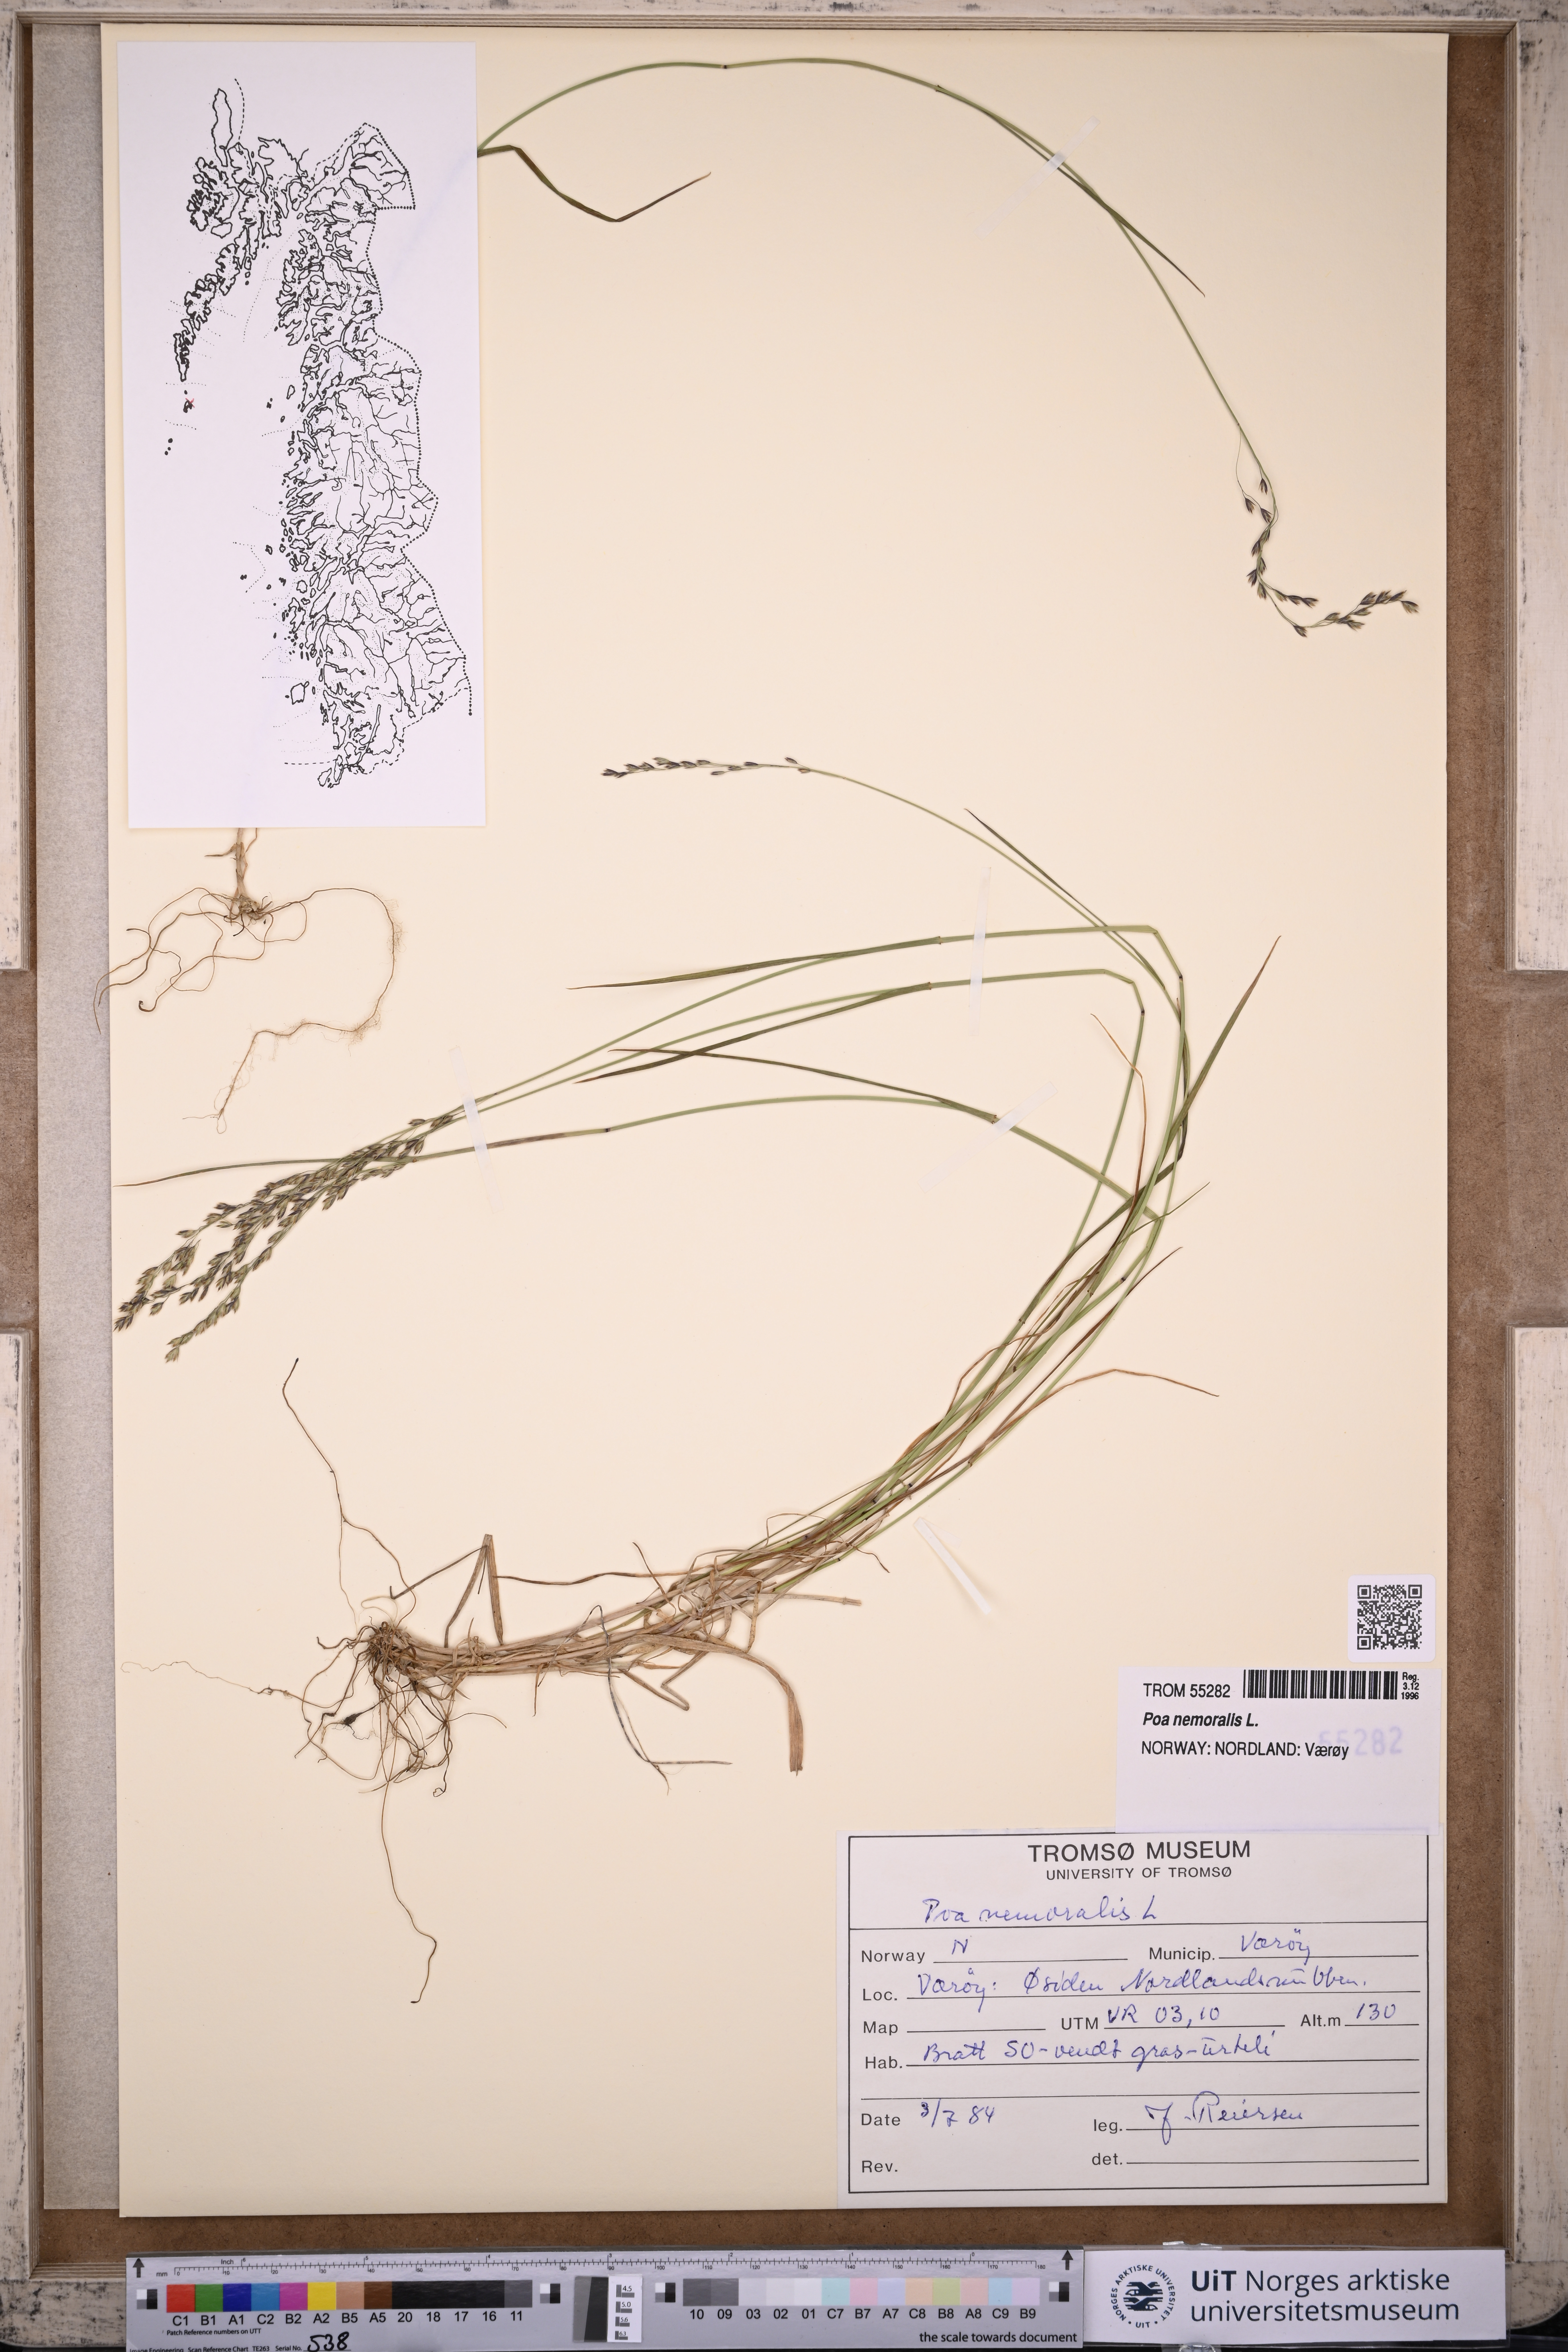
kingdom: Plantae
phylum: Tracheophyta
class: Liliopsida
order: Poales
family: Poaceae
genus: Poa
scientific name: Poa nemoralis
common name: Wood bluegrass
